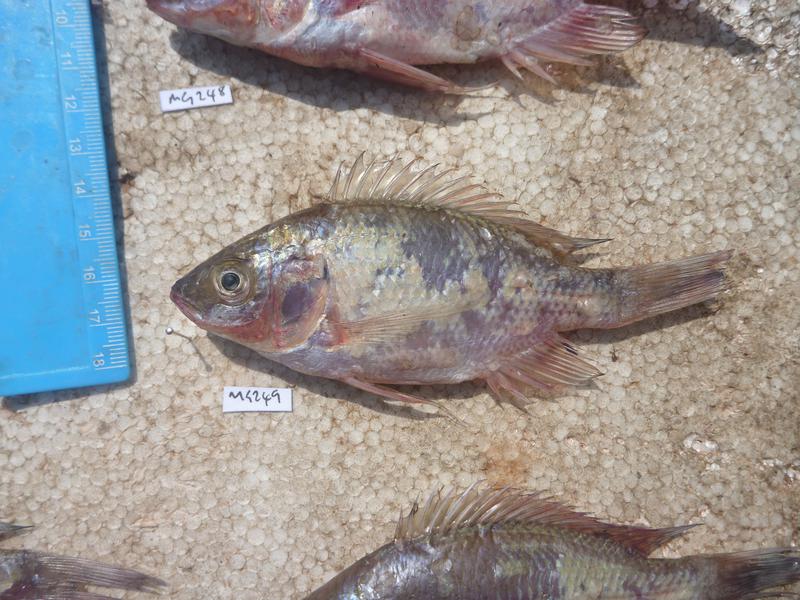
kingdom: Animalia
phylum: Chordata
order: Perciformes
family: Cichlidae
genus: Oreochromis
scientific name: Oreochromis esculentus
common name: Carp
